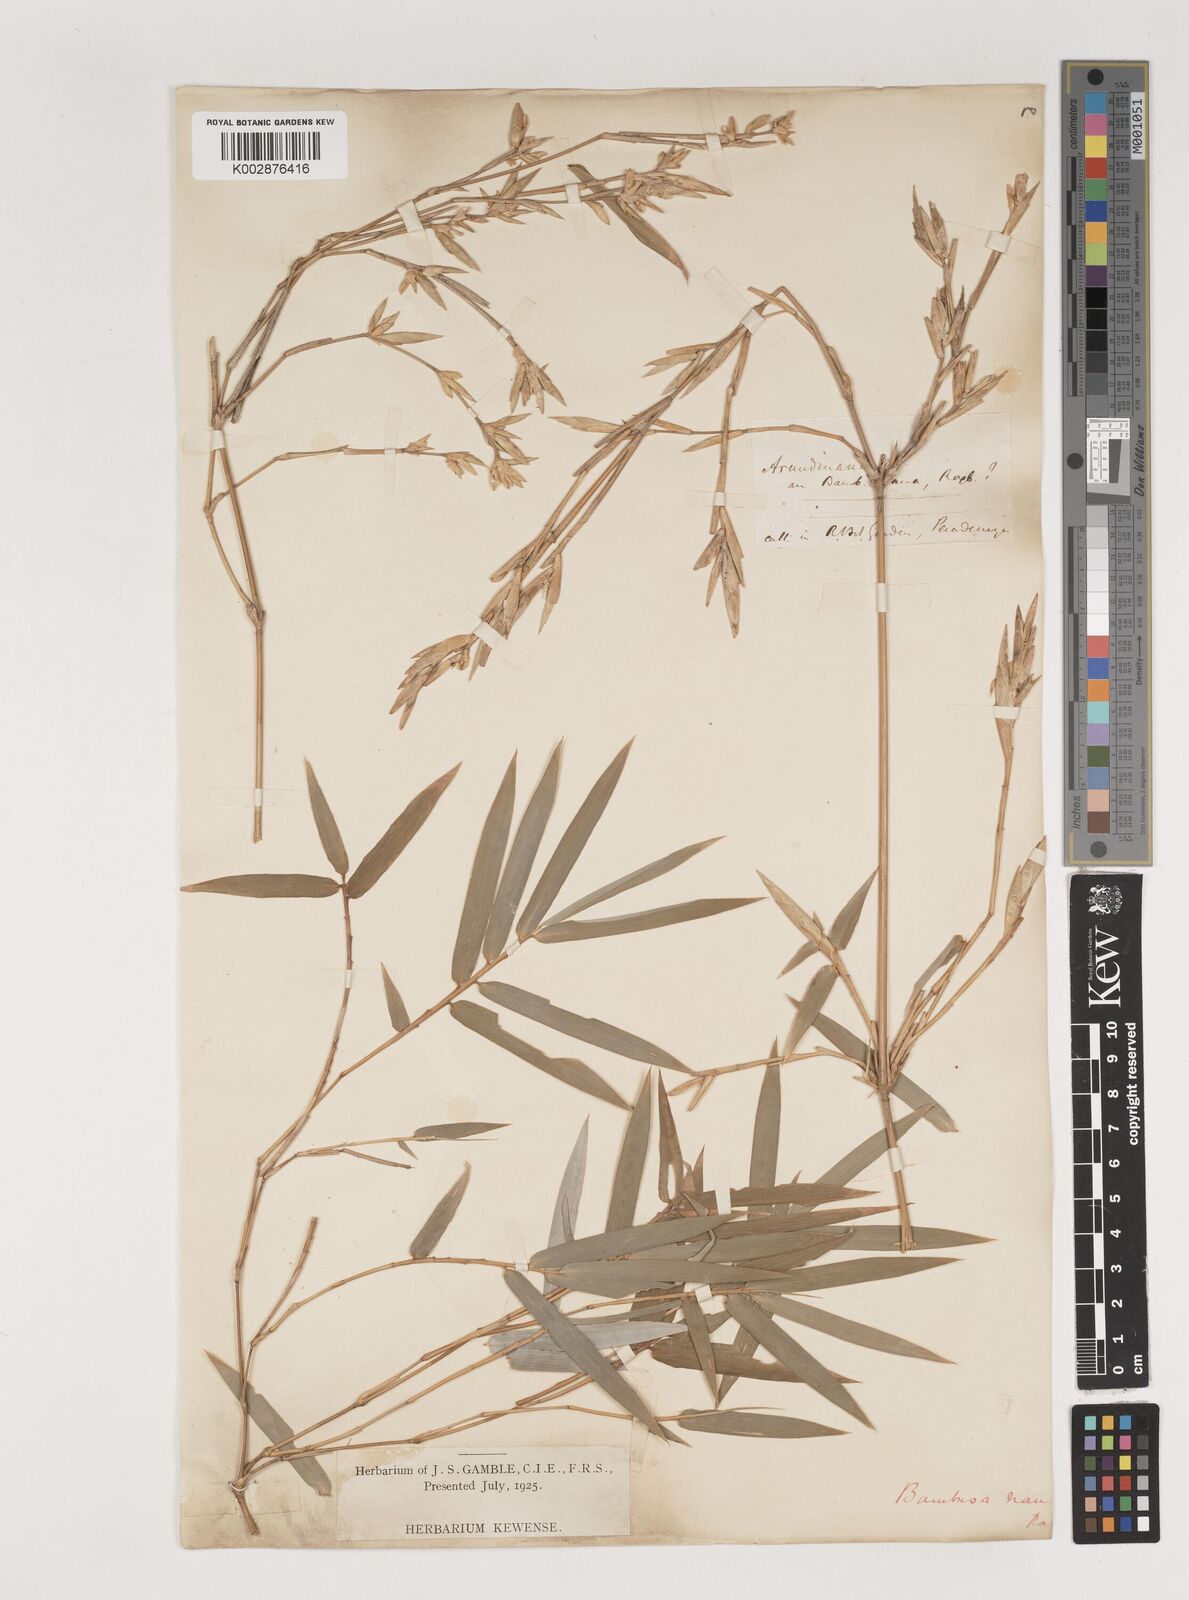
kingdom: Plantae
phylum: Tracheophyta
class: Liliopsida
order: Poales
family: Poaceae
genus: Bambusa
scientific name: Bambusa multiplex
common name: Hedge bamboo
